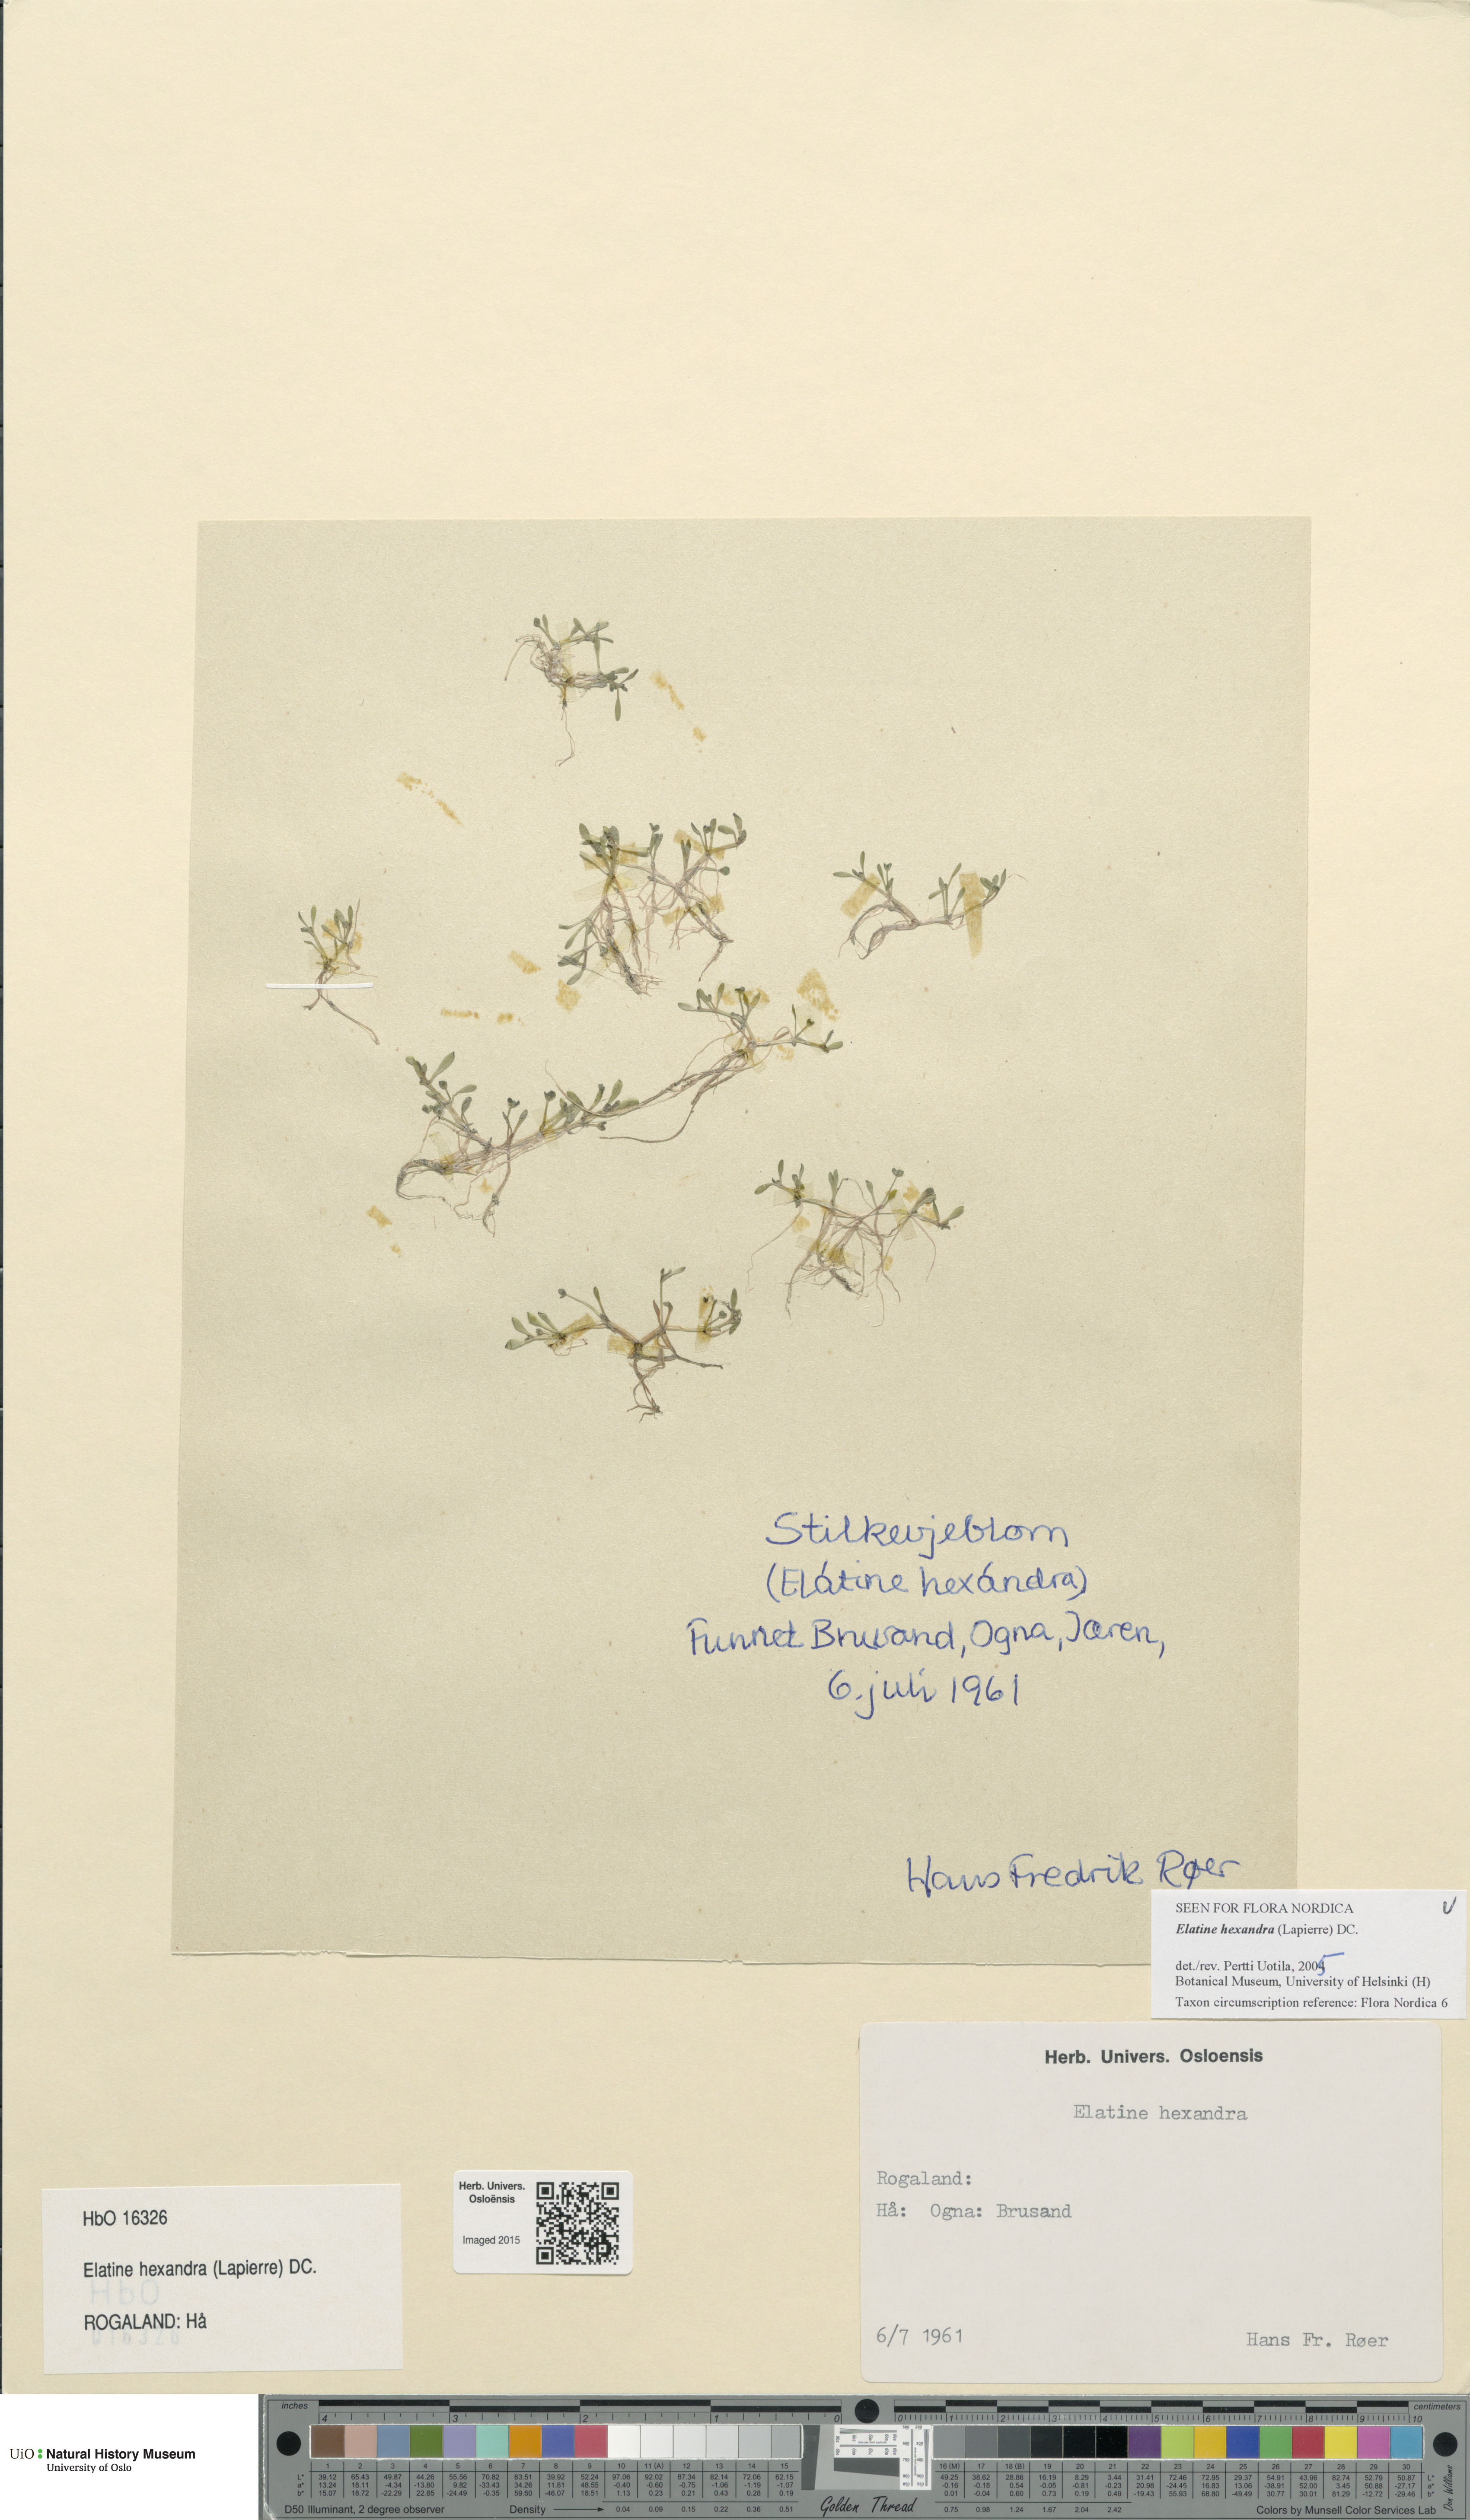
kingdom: Plantae
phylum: Tracheophyta
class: Magnoliopsida
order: Malpighiales
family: Elatinaceae
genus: Elatine
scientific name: Elatine hexandra
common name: Six-stamened waterwort
